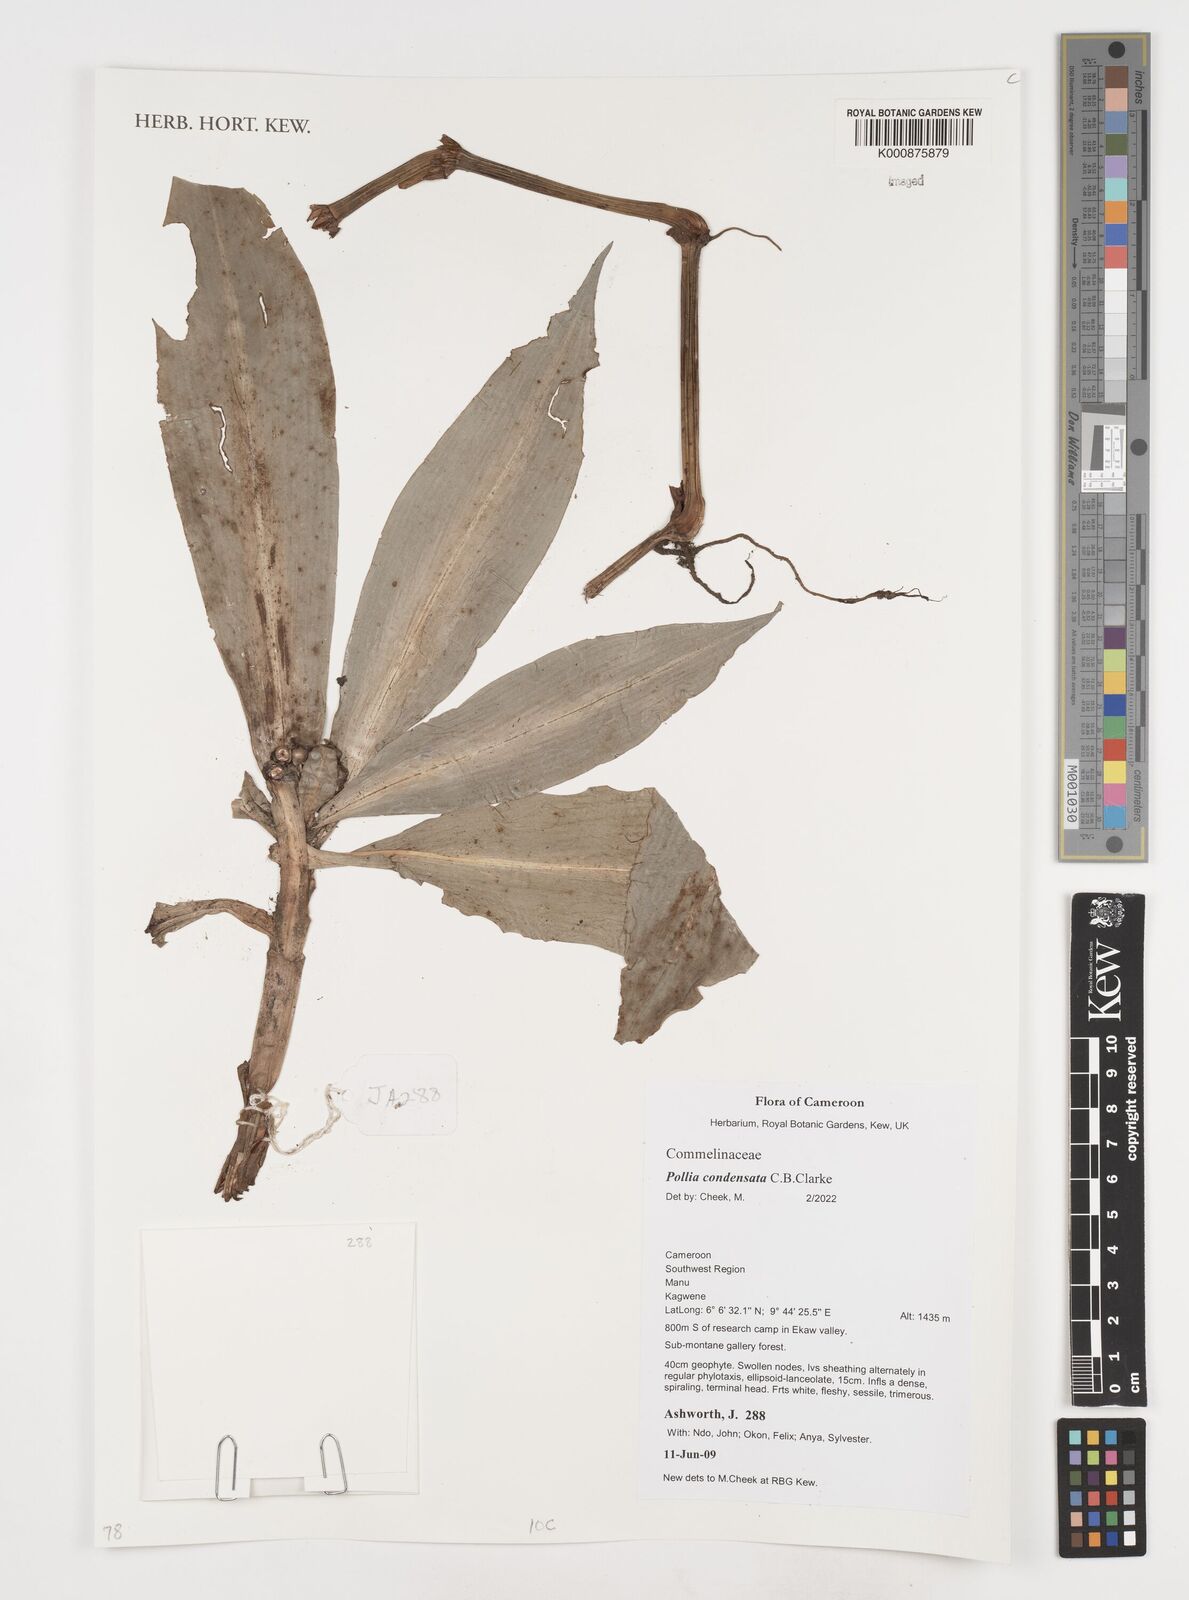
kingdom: Plantae
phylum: Tracheophyta
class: Liliopsida
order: Commelinales
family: Commelinaceae
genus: Pollia
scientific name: Pollia condensata
